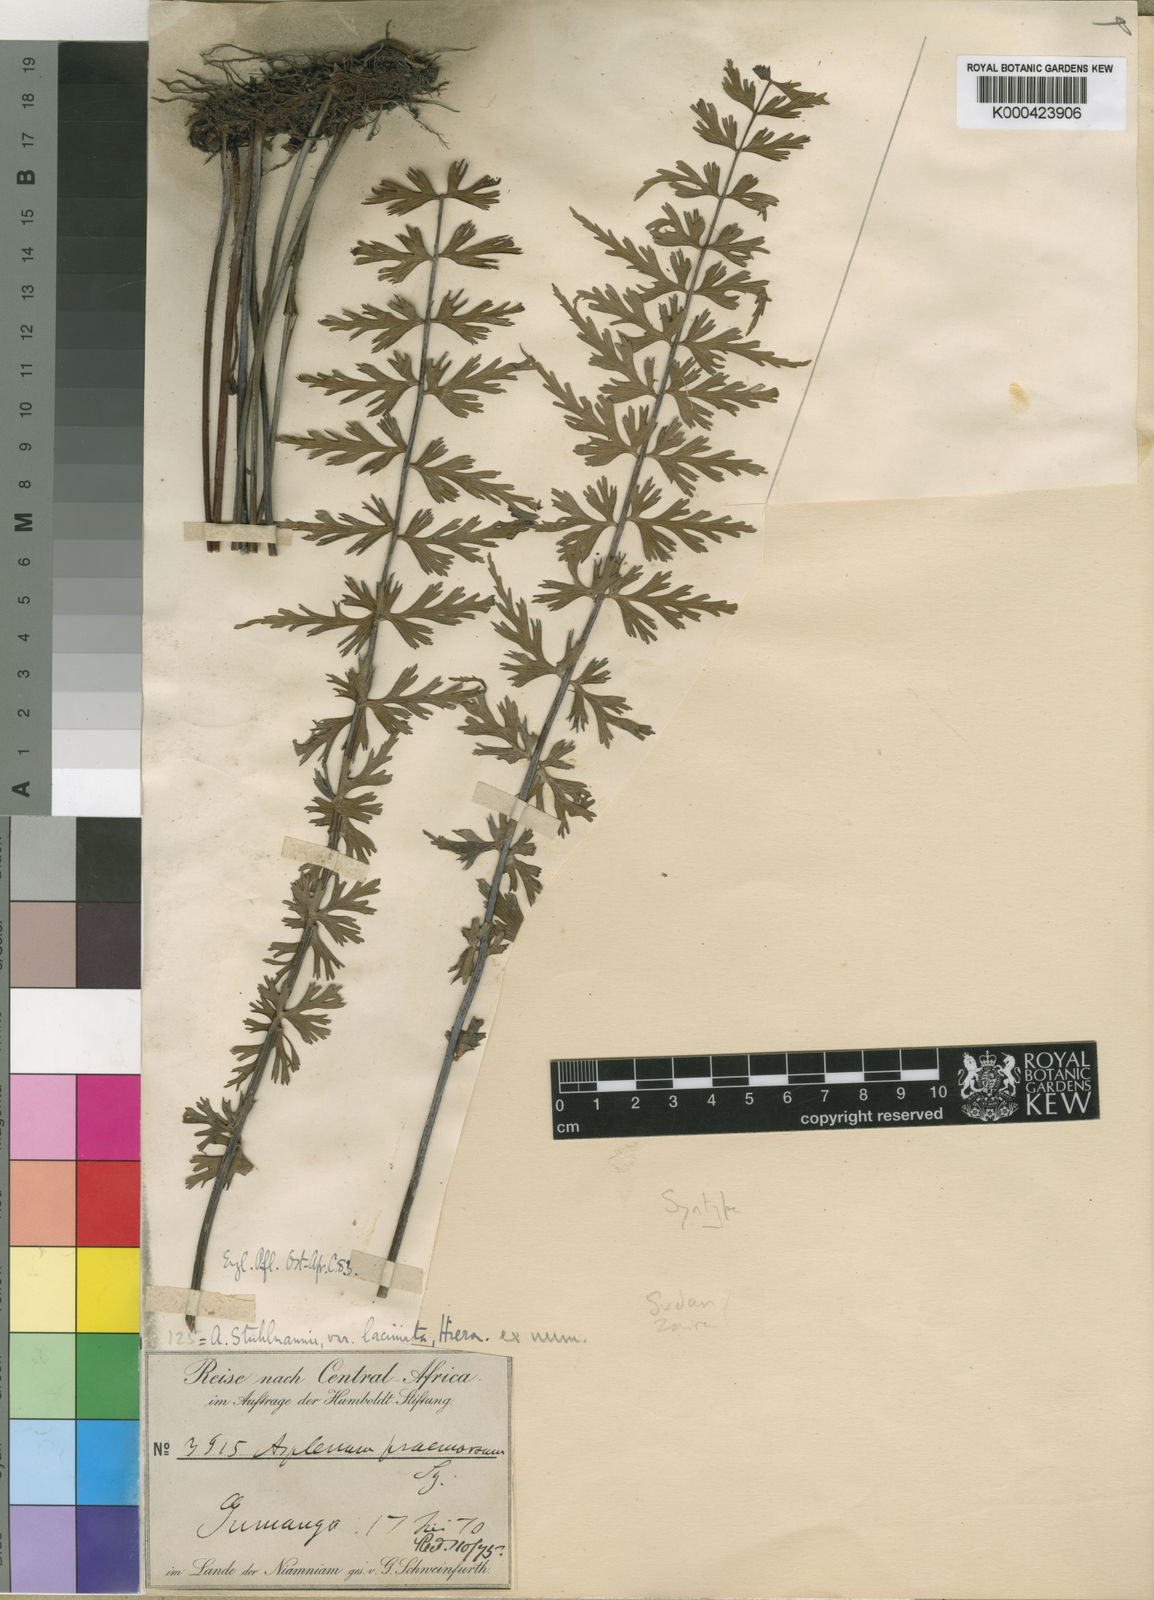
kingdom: Plantae
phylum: Tracheophyta
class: Polypodiopsida
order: Polypodiales
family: Aspleniaceae
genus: Asplenium
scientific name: Asplenium stuhlmannii
